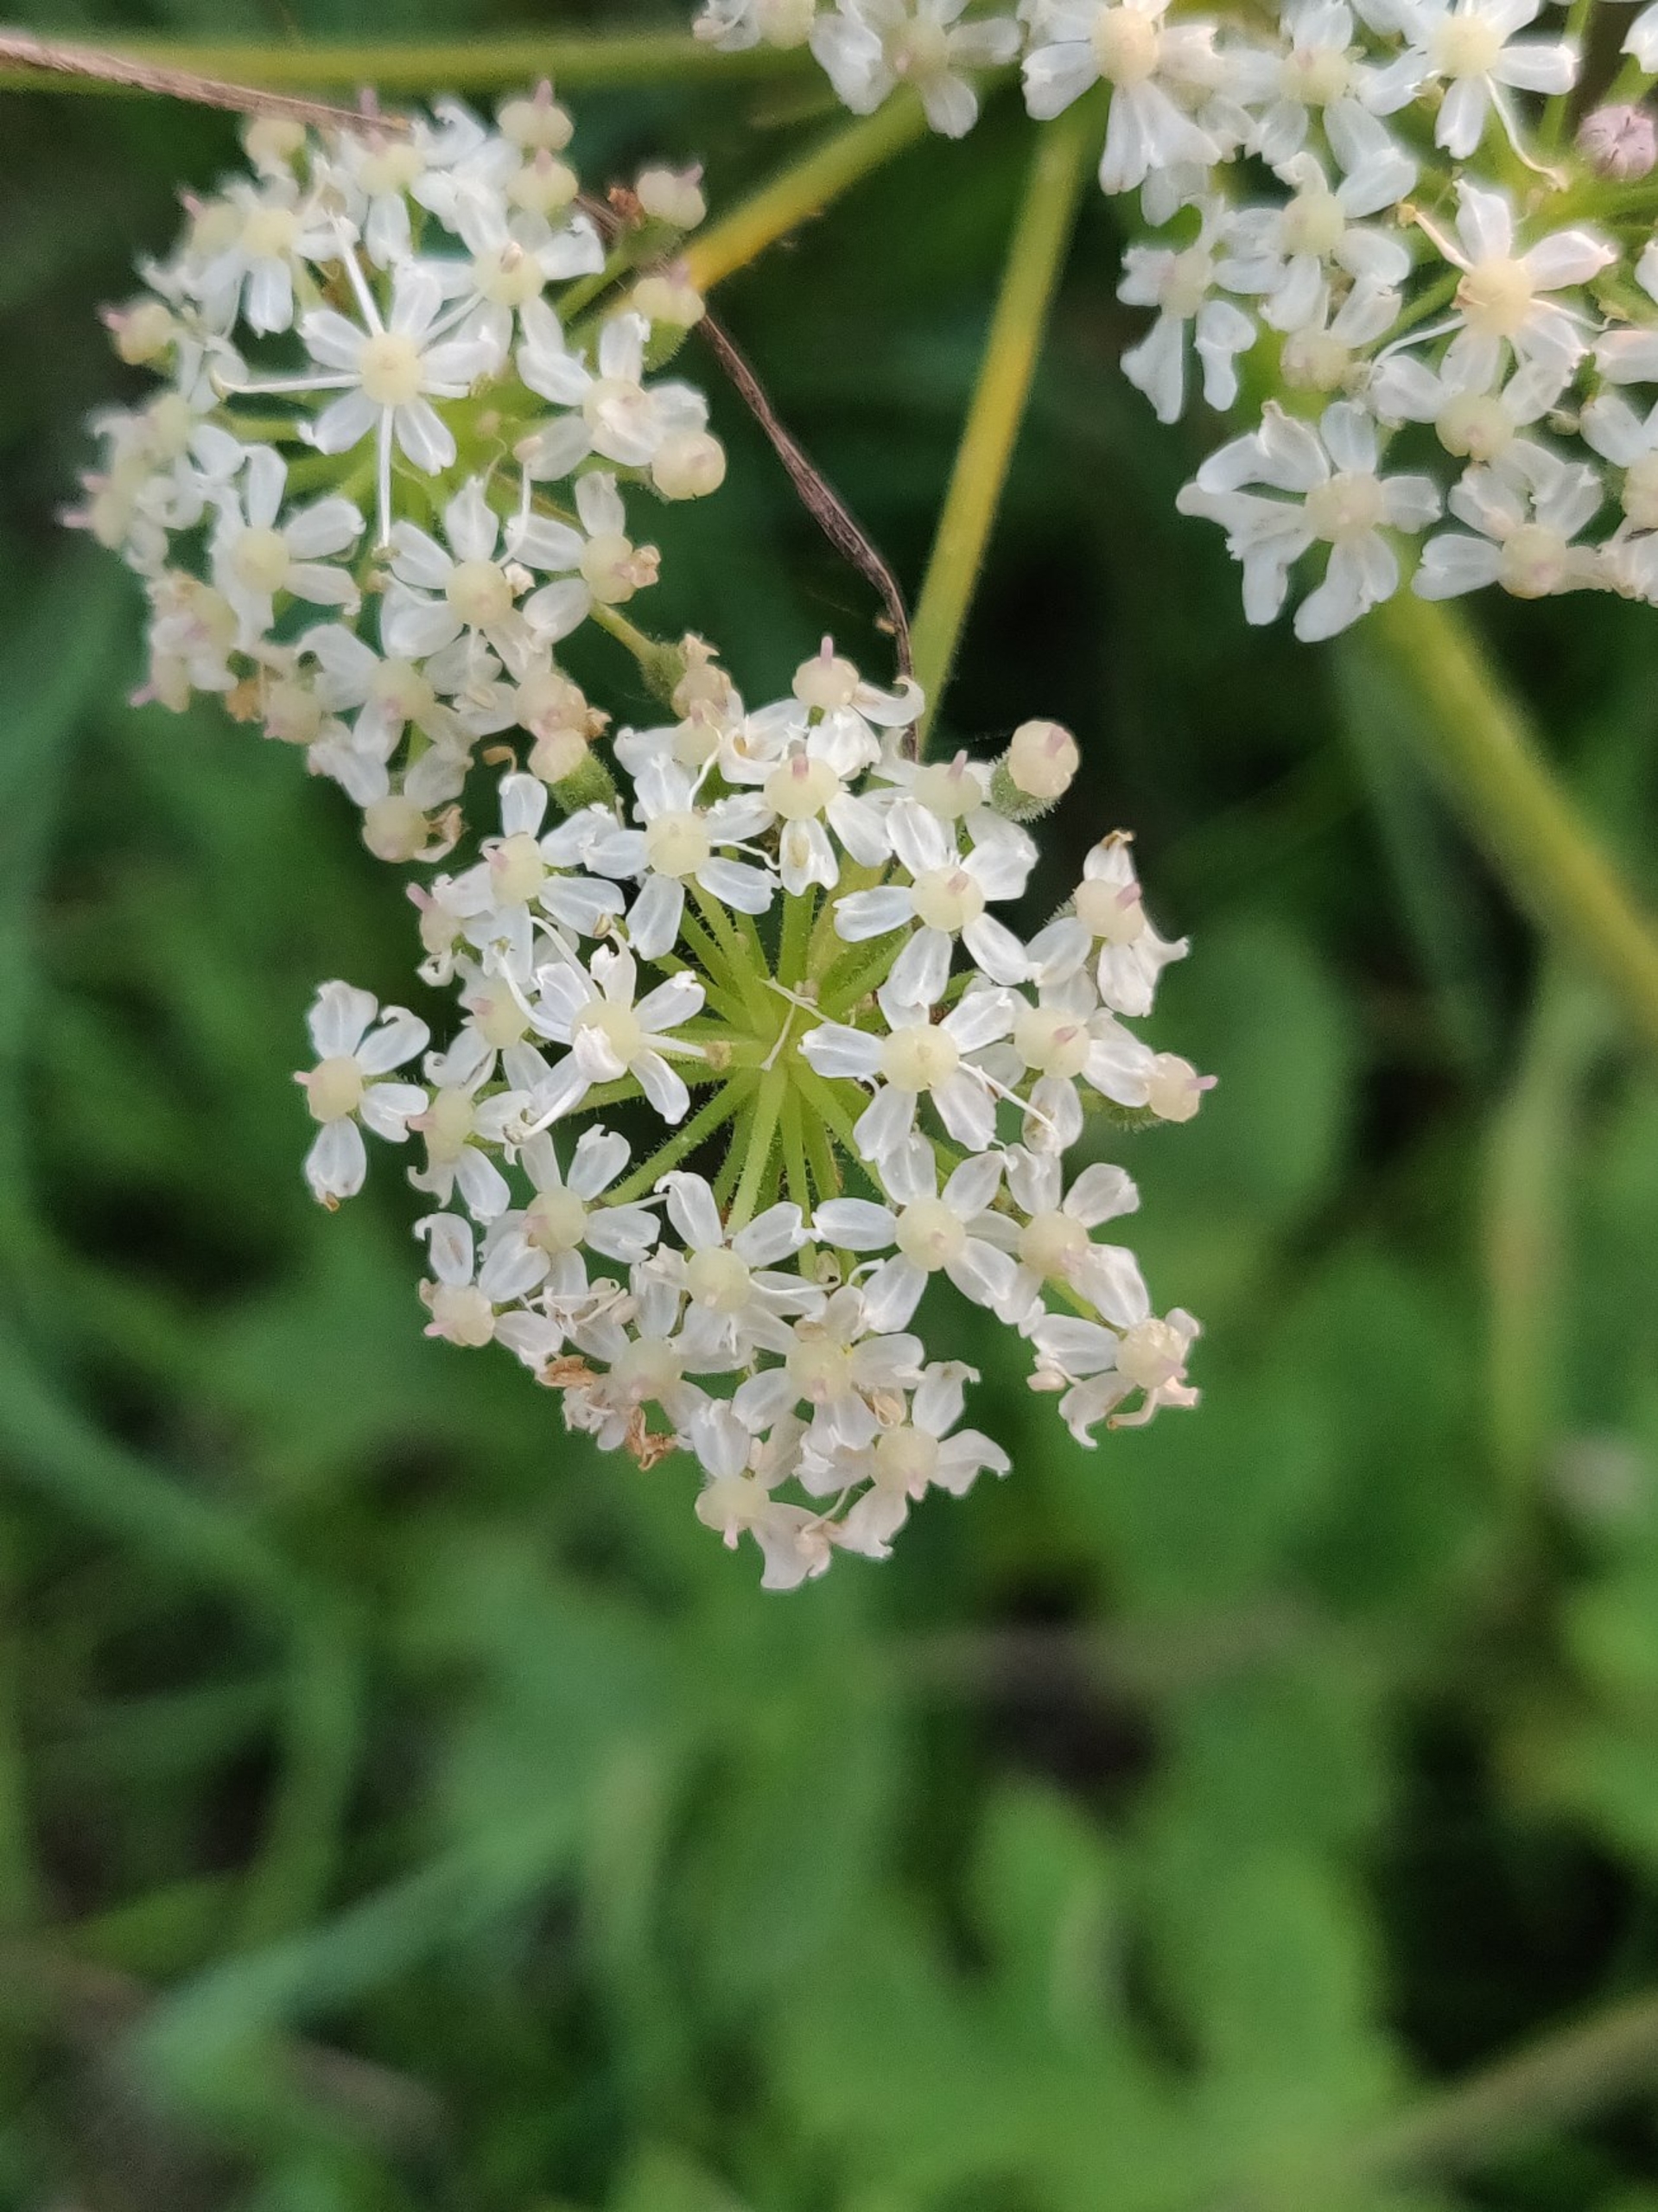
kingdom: Plantae
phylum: Tracheophyta
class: Magnoliopsida
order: Apiales
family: Apiaceae
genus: Heracleum
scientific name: Heracleum sphondylium
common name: Almindelig bjørneklo (underart)
